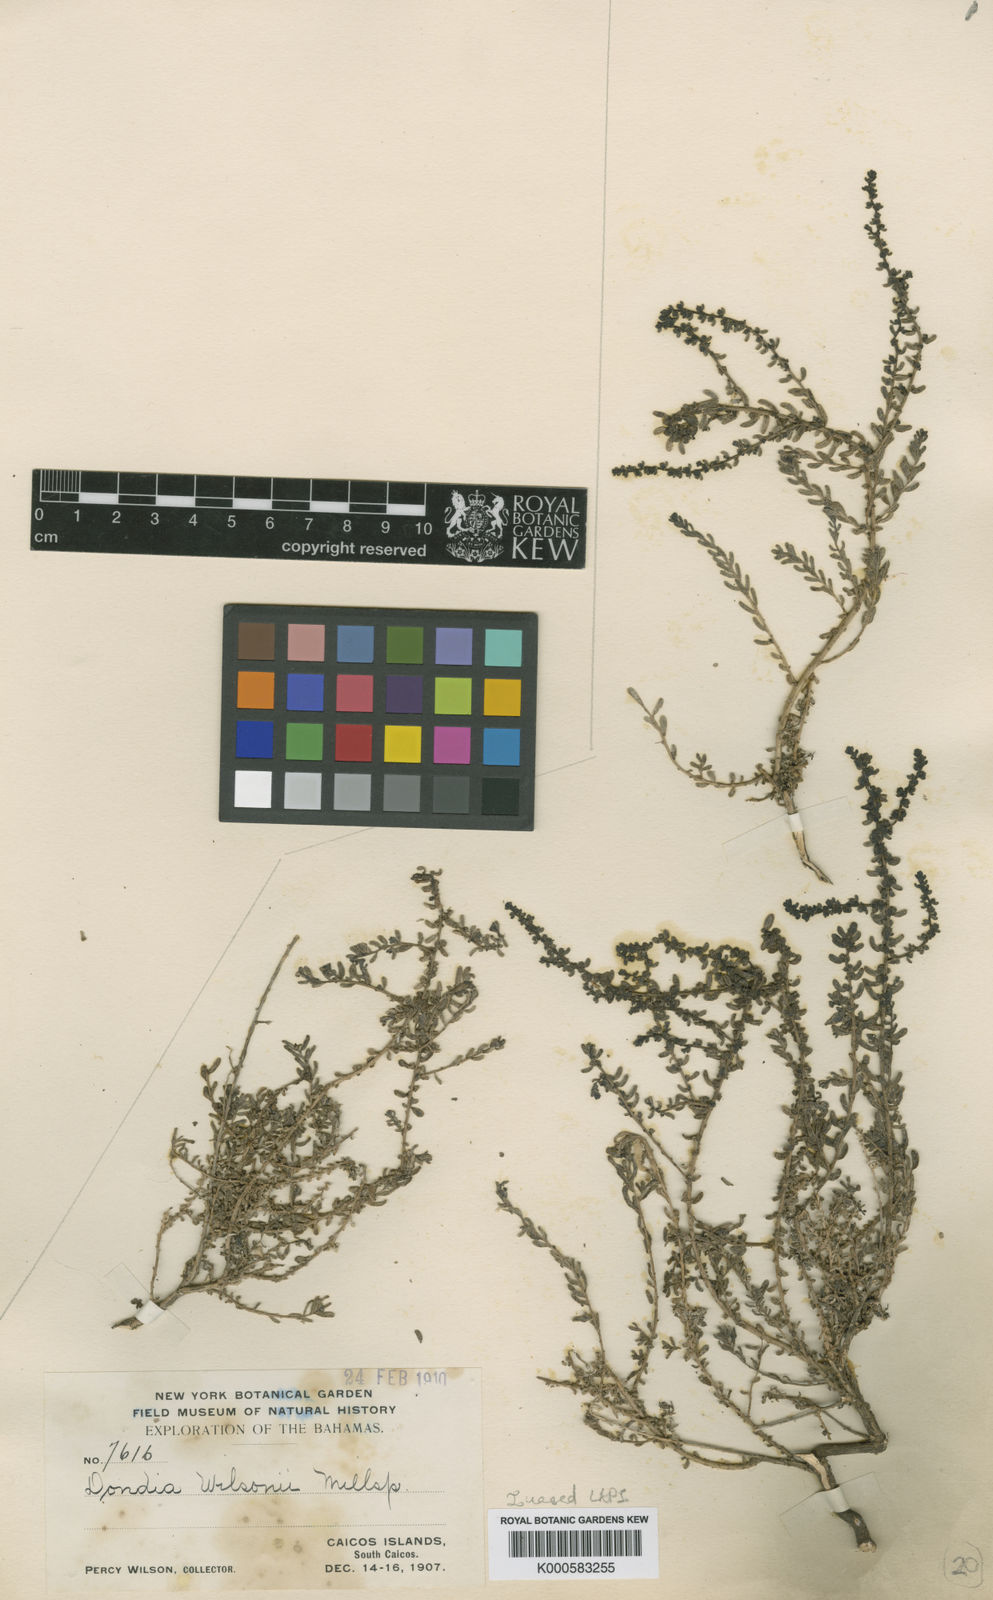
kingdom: Plantae
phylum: Tracheophyta
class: Magnoliopsida
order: Caryophyllales
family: Amaranthaceae
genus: Suaeda
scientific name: Suaeda nigra
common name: Bush seepweed
